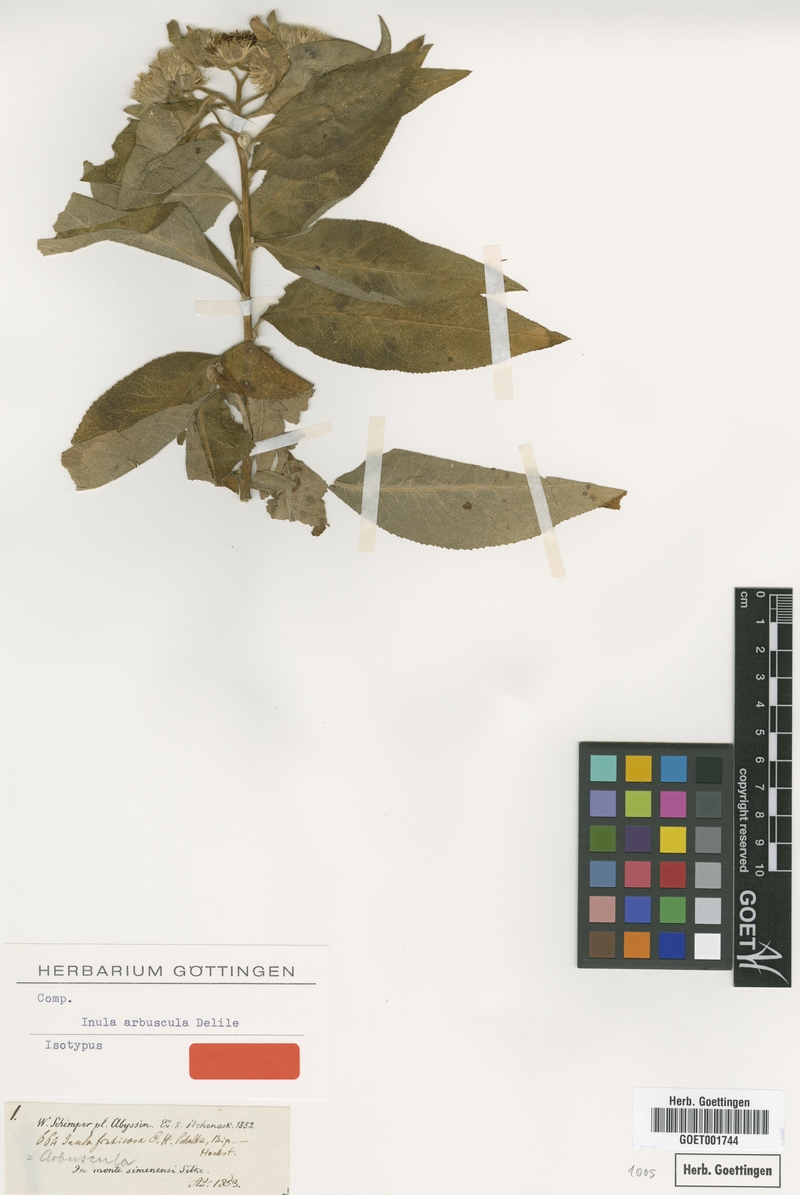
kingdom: Plantae
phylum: Tracheophyta
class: Magnoliopsida
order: Asterales
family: Asteraceae
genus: Inula
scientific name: Inula arbuscula
